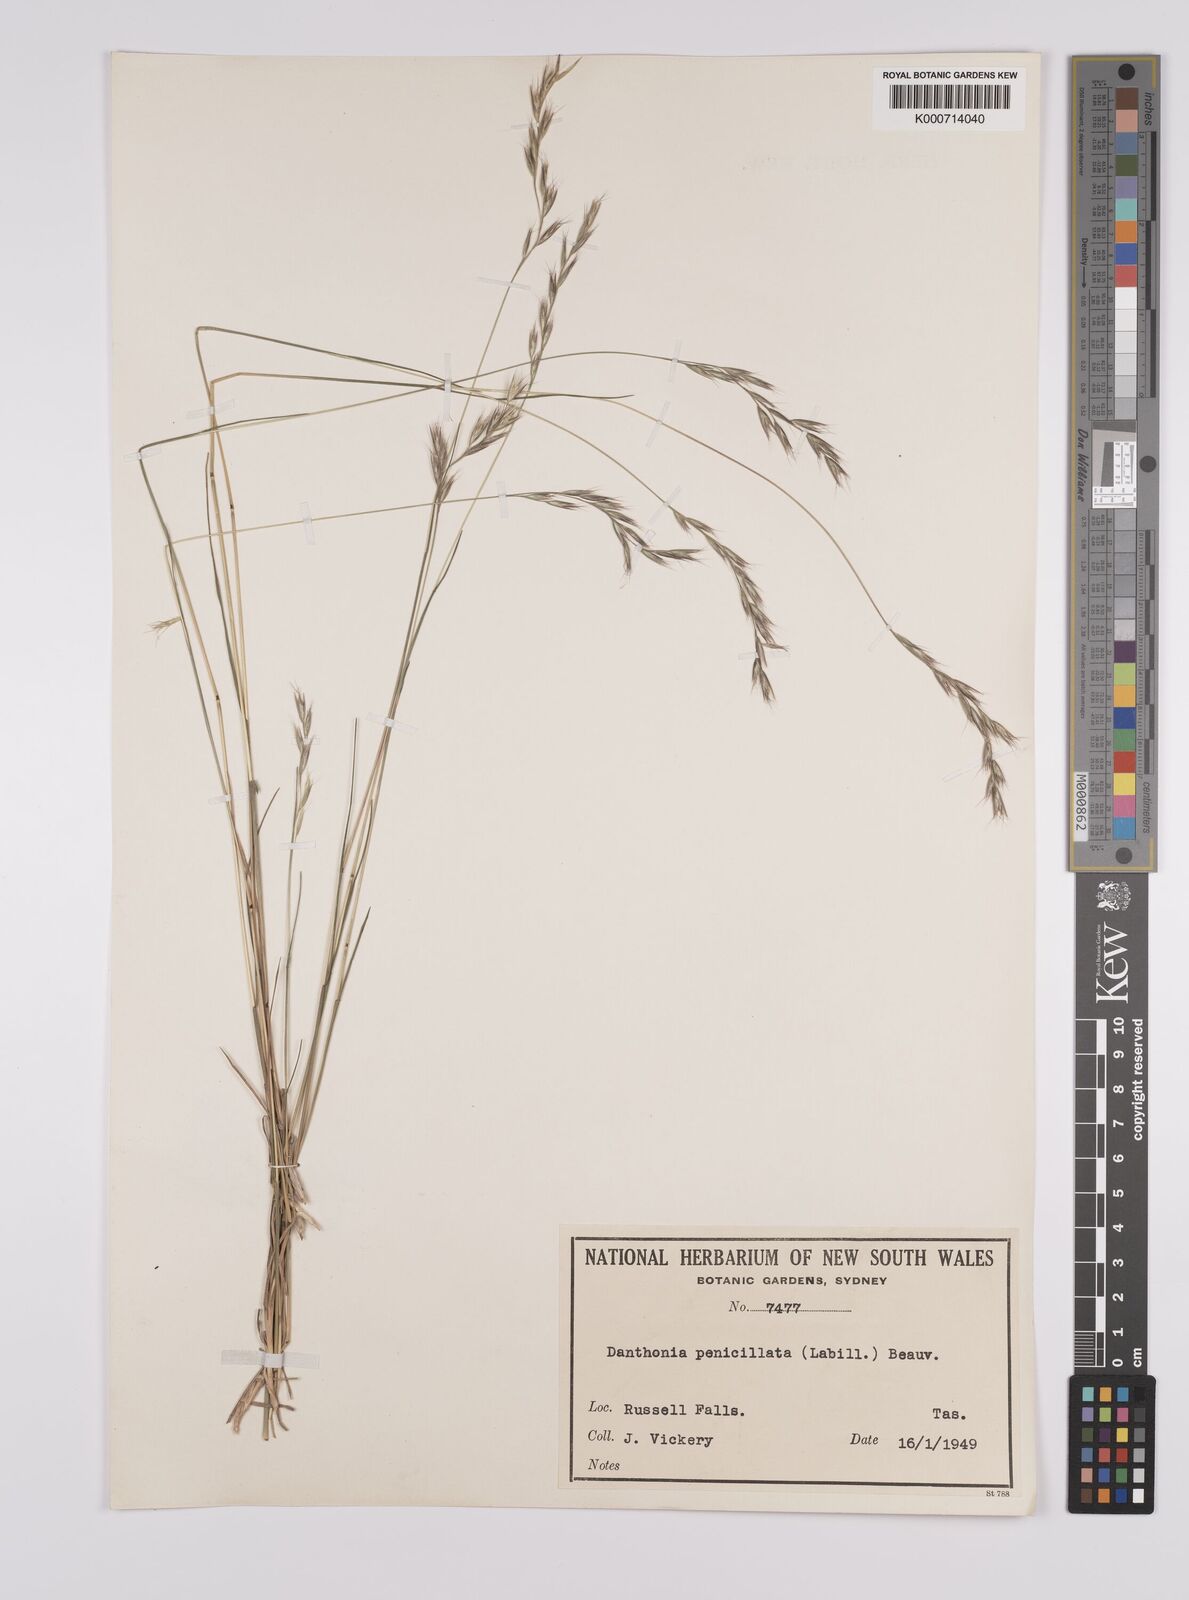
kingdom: Plantae
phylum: Tracheophyta
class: Liliopsida
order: Poales
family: Poaceae
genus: Rytidosperma
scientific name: Rytidosperma penicillatum
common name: Hairy wallaby grass
